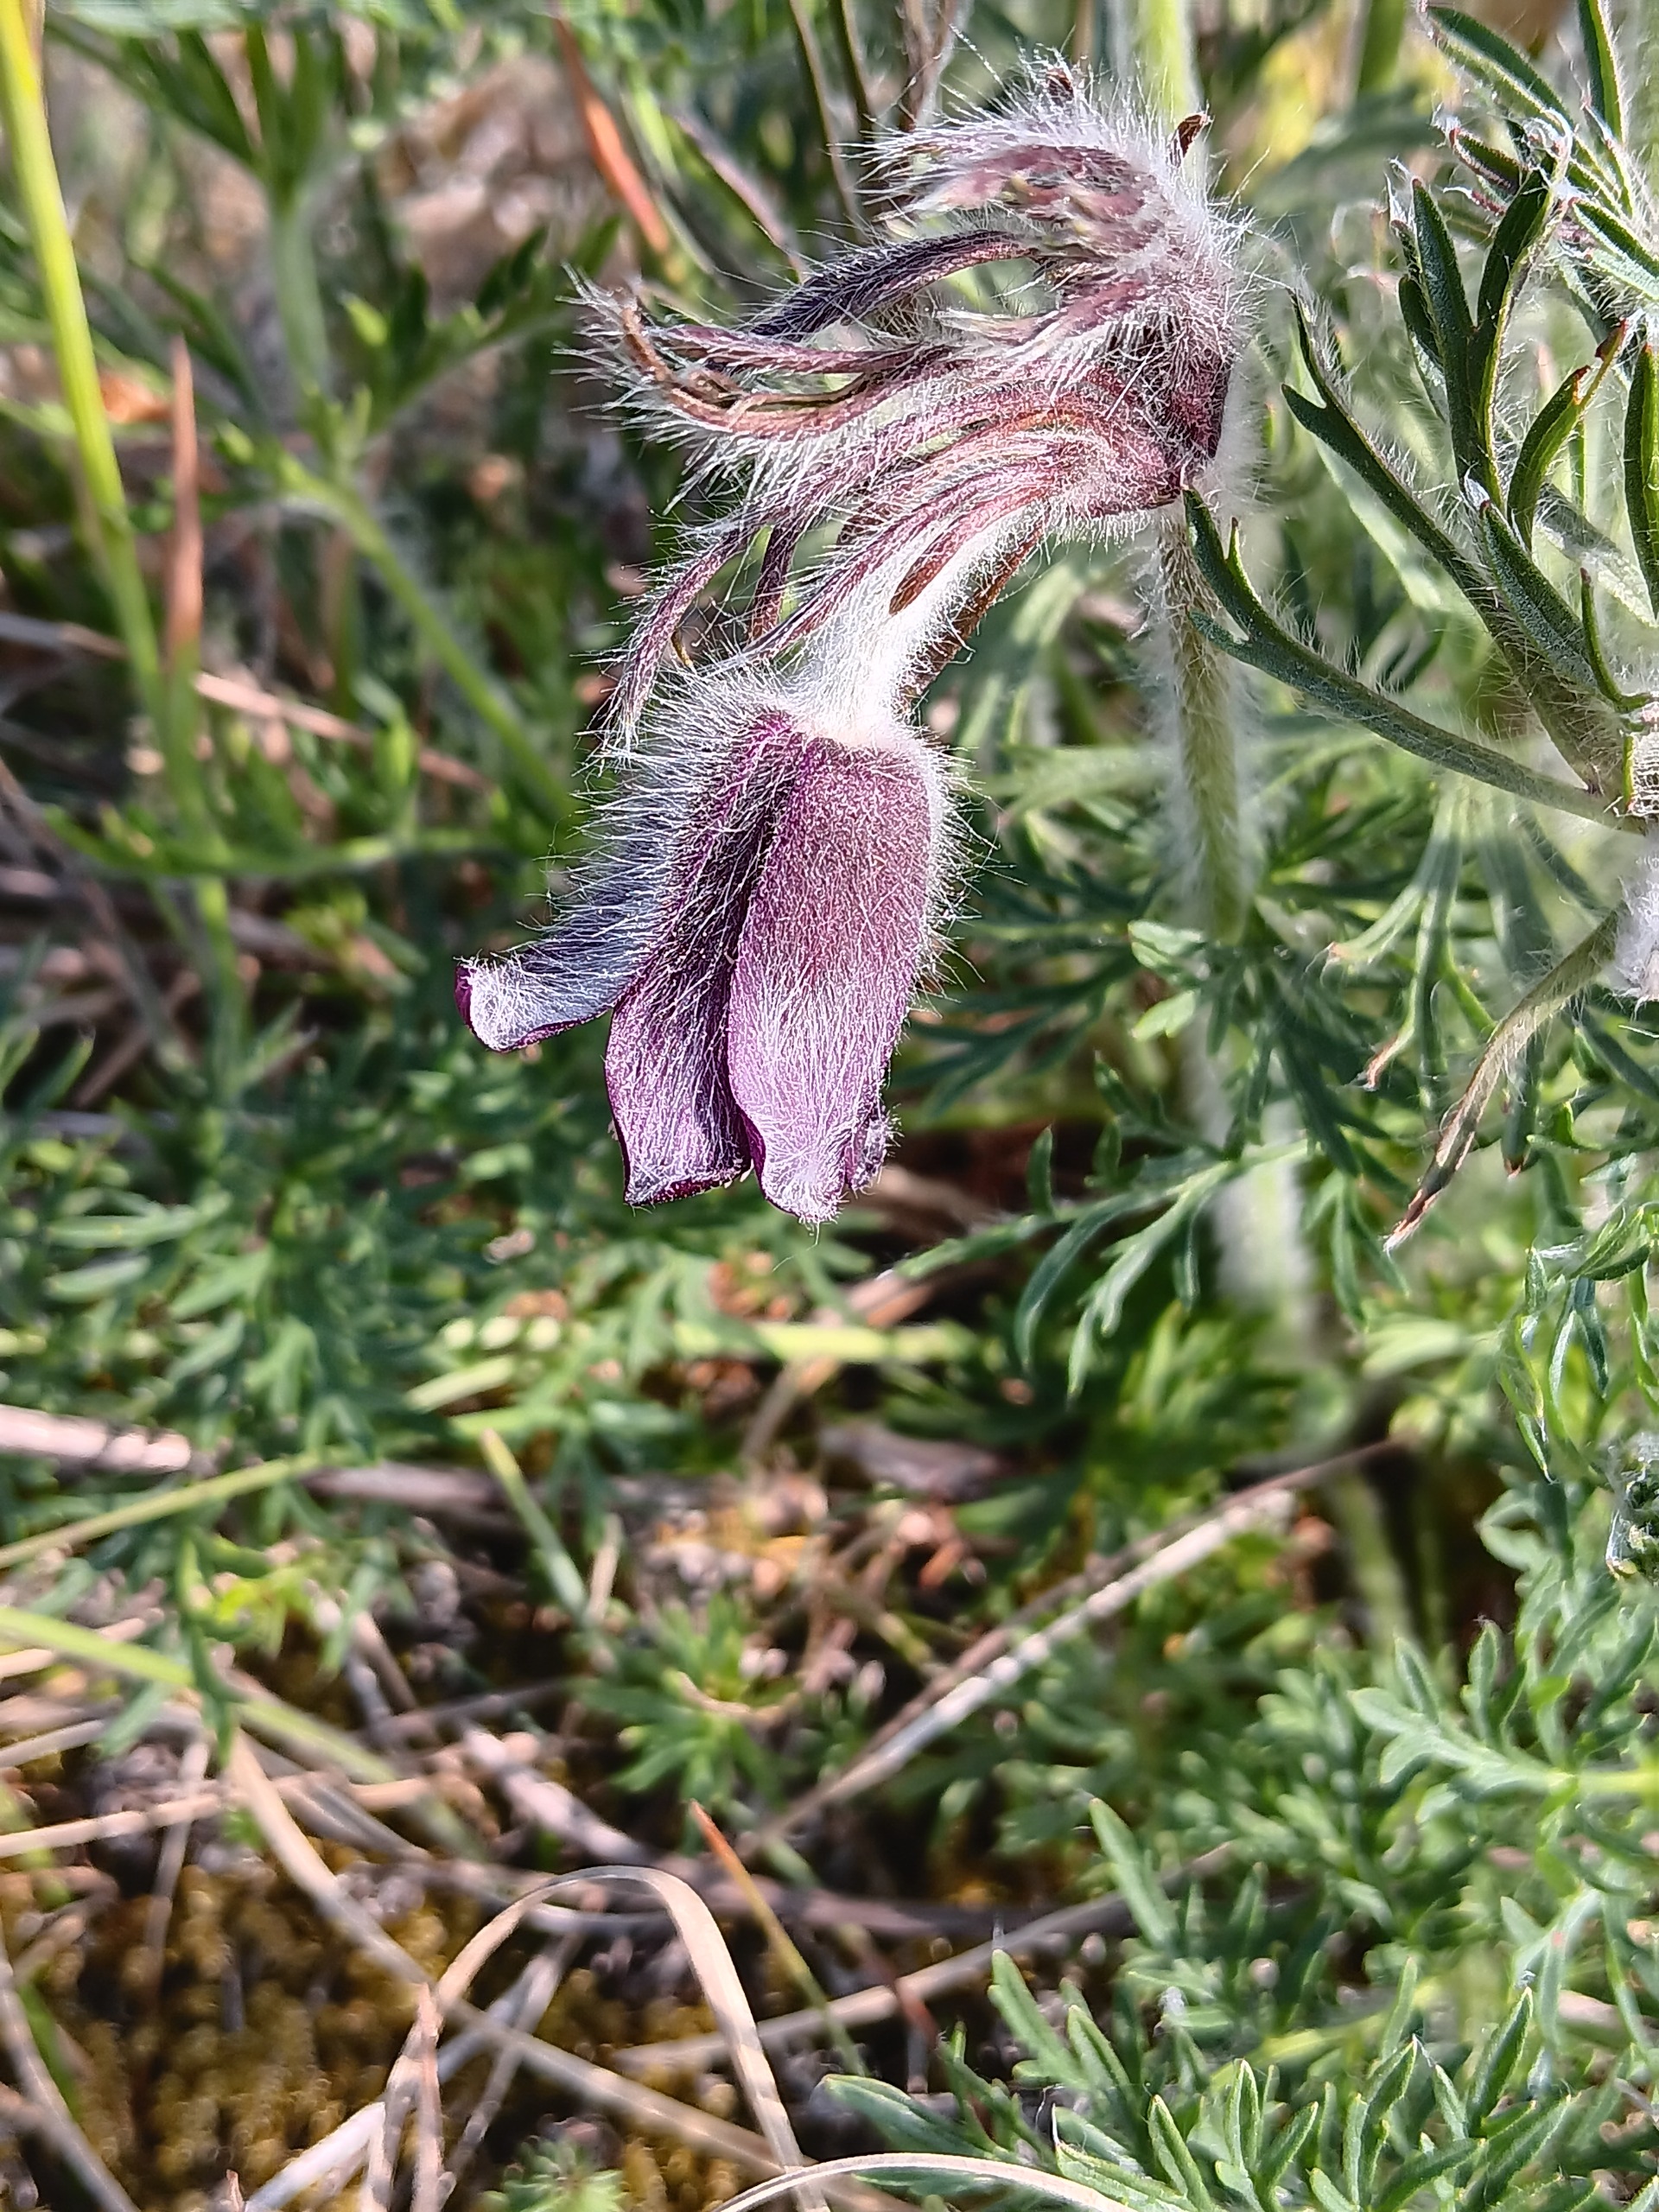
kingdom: Plantae
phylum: Tracheophyta
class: Magnoliopsida
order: Ranunculales
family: Ranunculaceae
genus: Pulsatilla
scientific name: Pulsatilla pratensis
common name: Nikkende kobjælde
